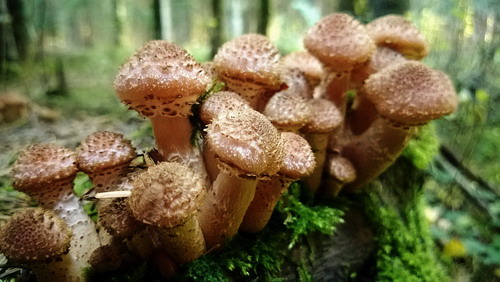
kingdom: Fungi
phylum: Basidiomycota
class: Agaricomycetes
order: Agaricales
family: Physalacriaceae
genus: Armillaria
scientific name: Armillaria ostoyae
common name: mørk honningsvamp
